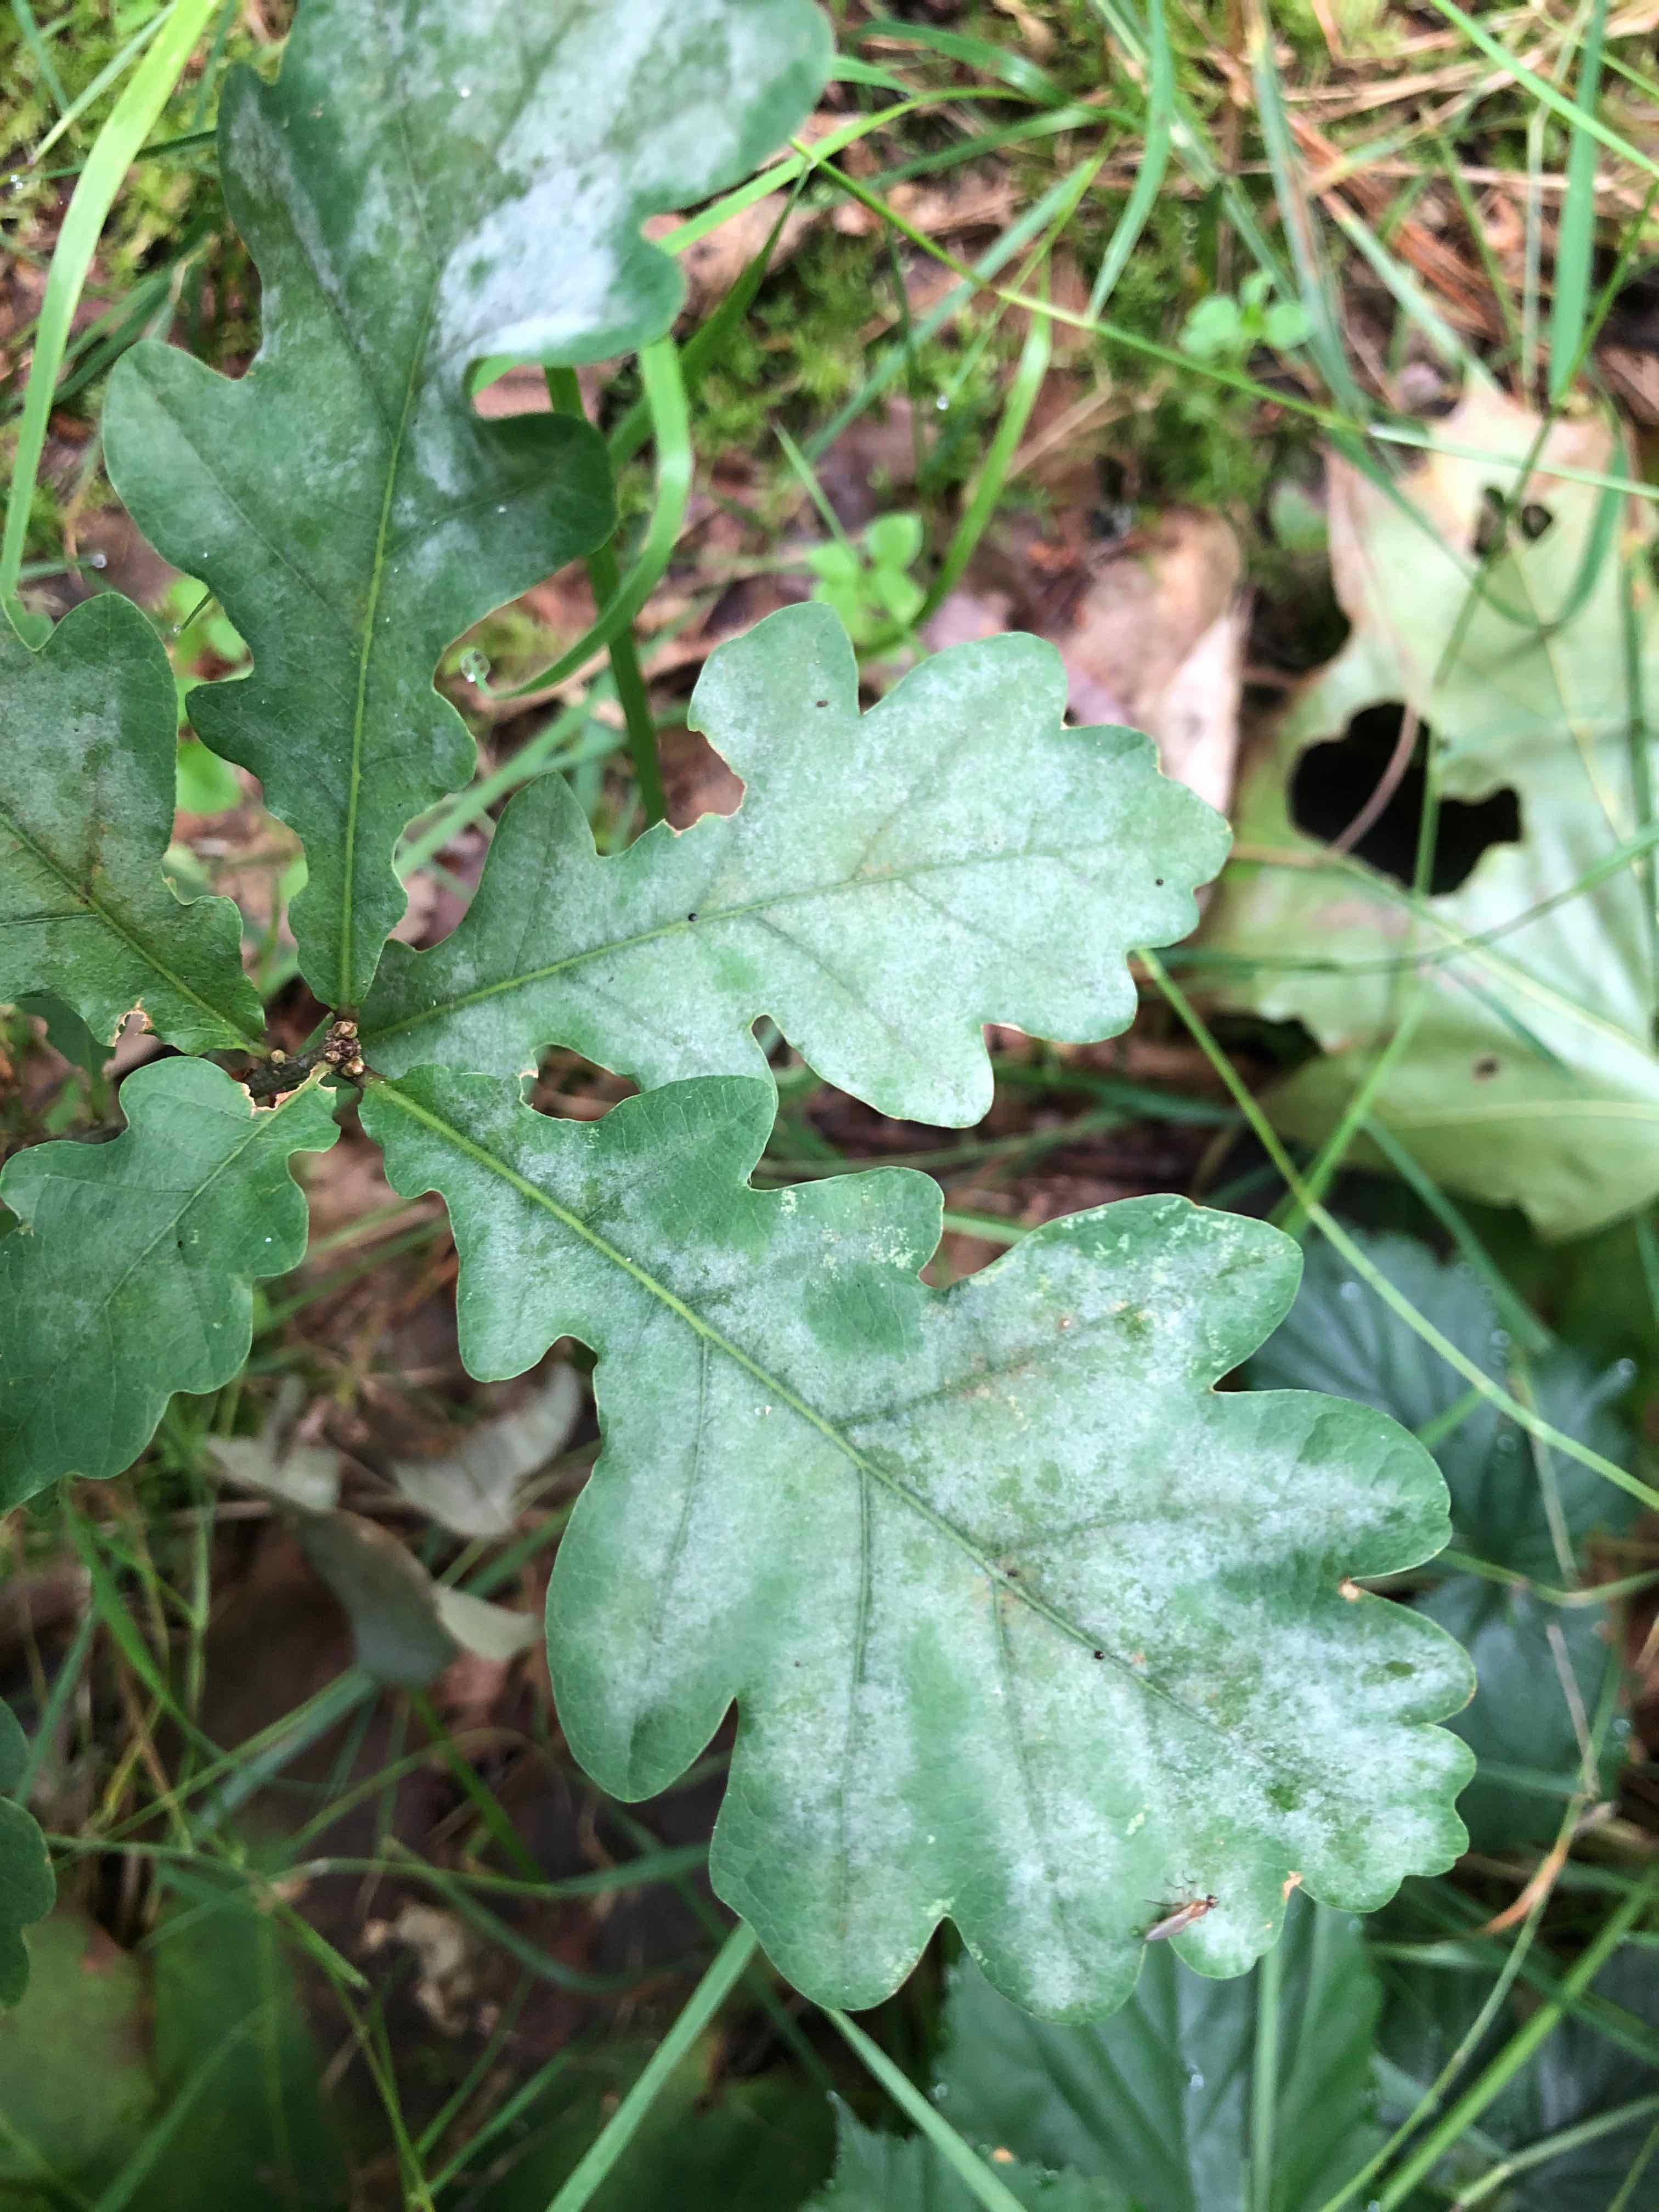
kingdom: Fungi
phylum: Ascomycota
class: Leotiomycetes
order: Helotiales
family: Erysiphaceae
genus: Erysiphe
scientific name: Erysiphe alphitoides
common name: ege-meldug
